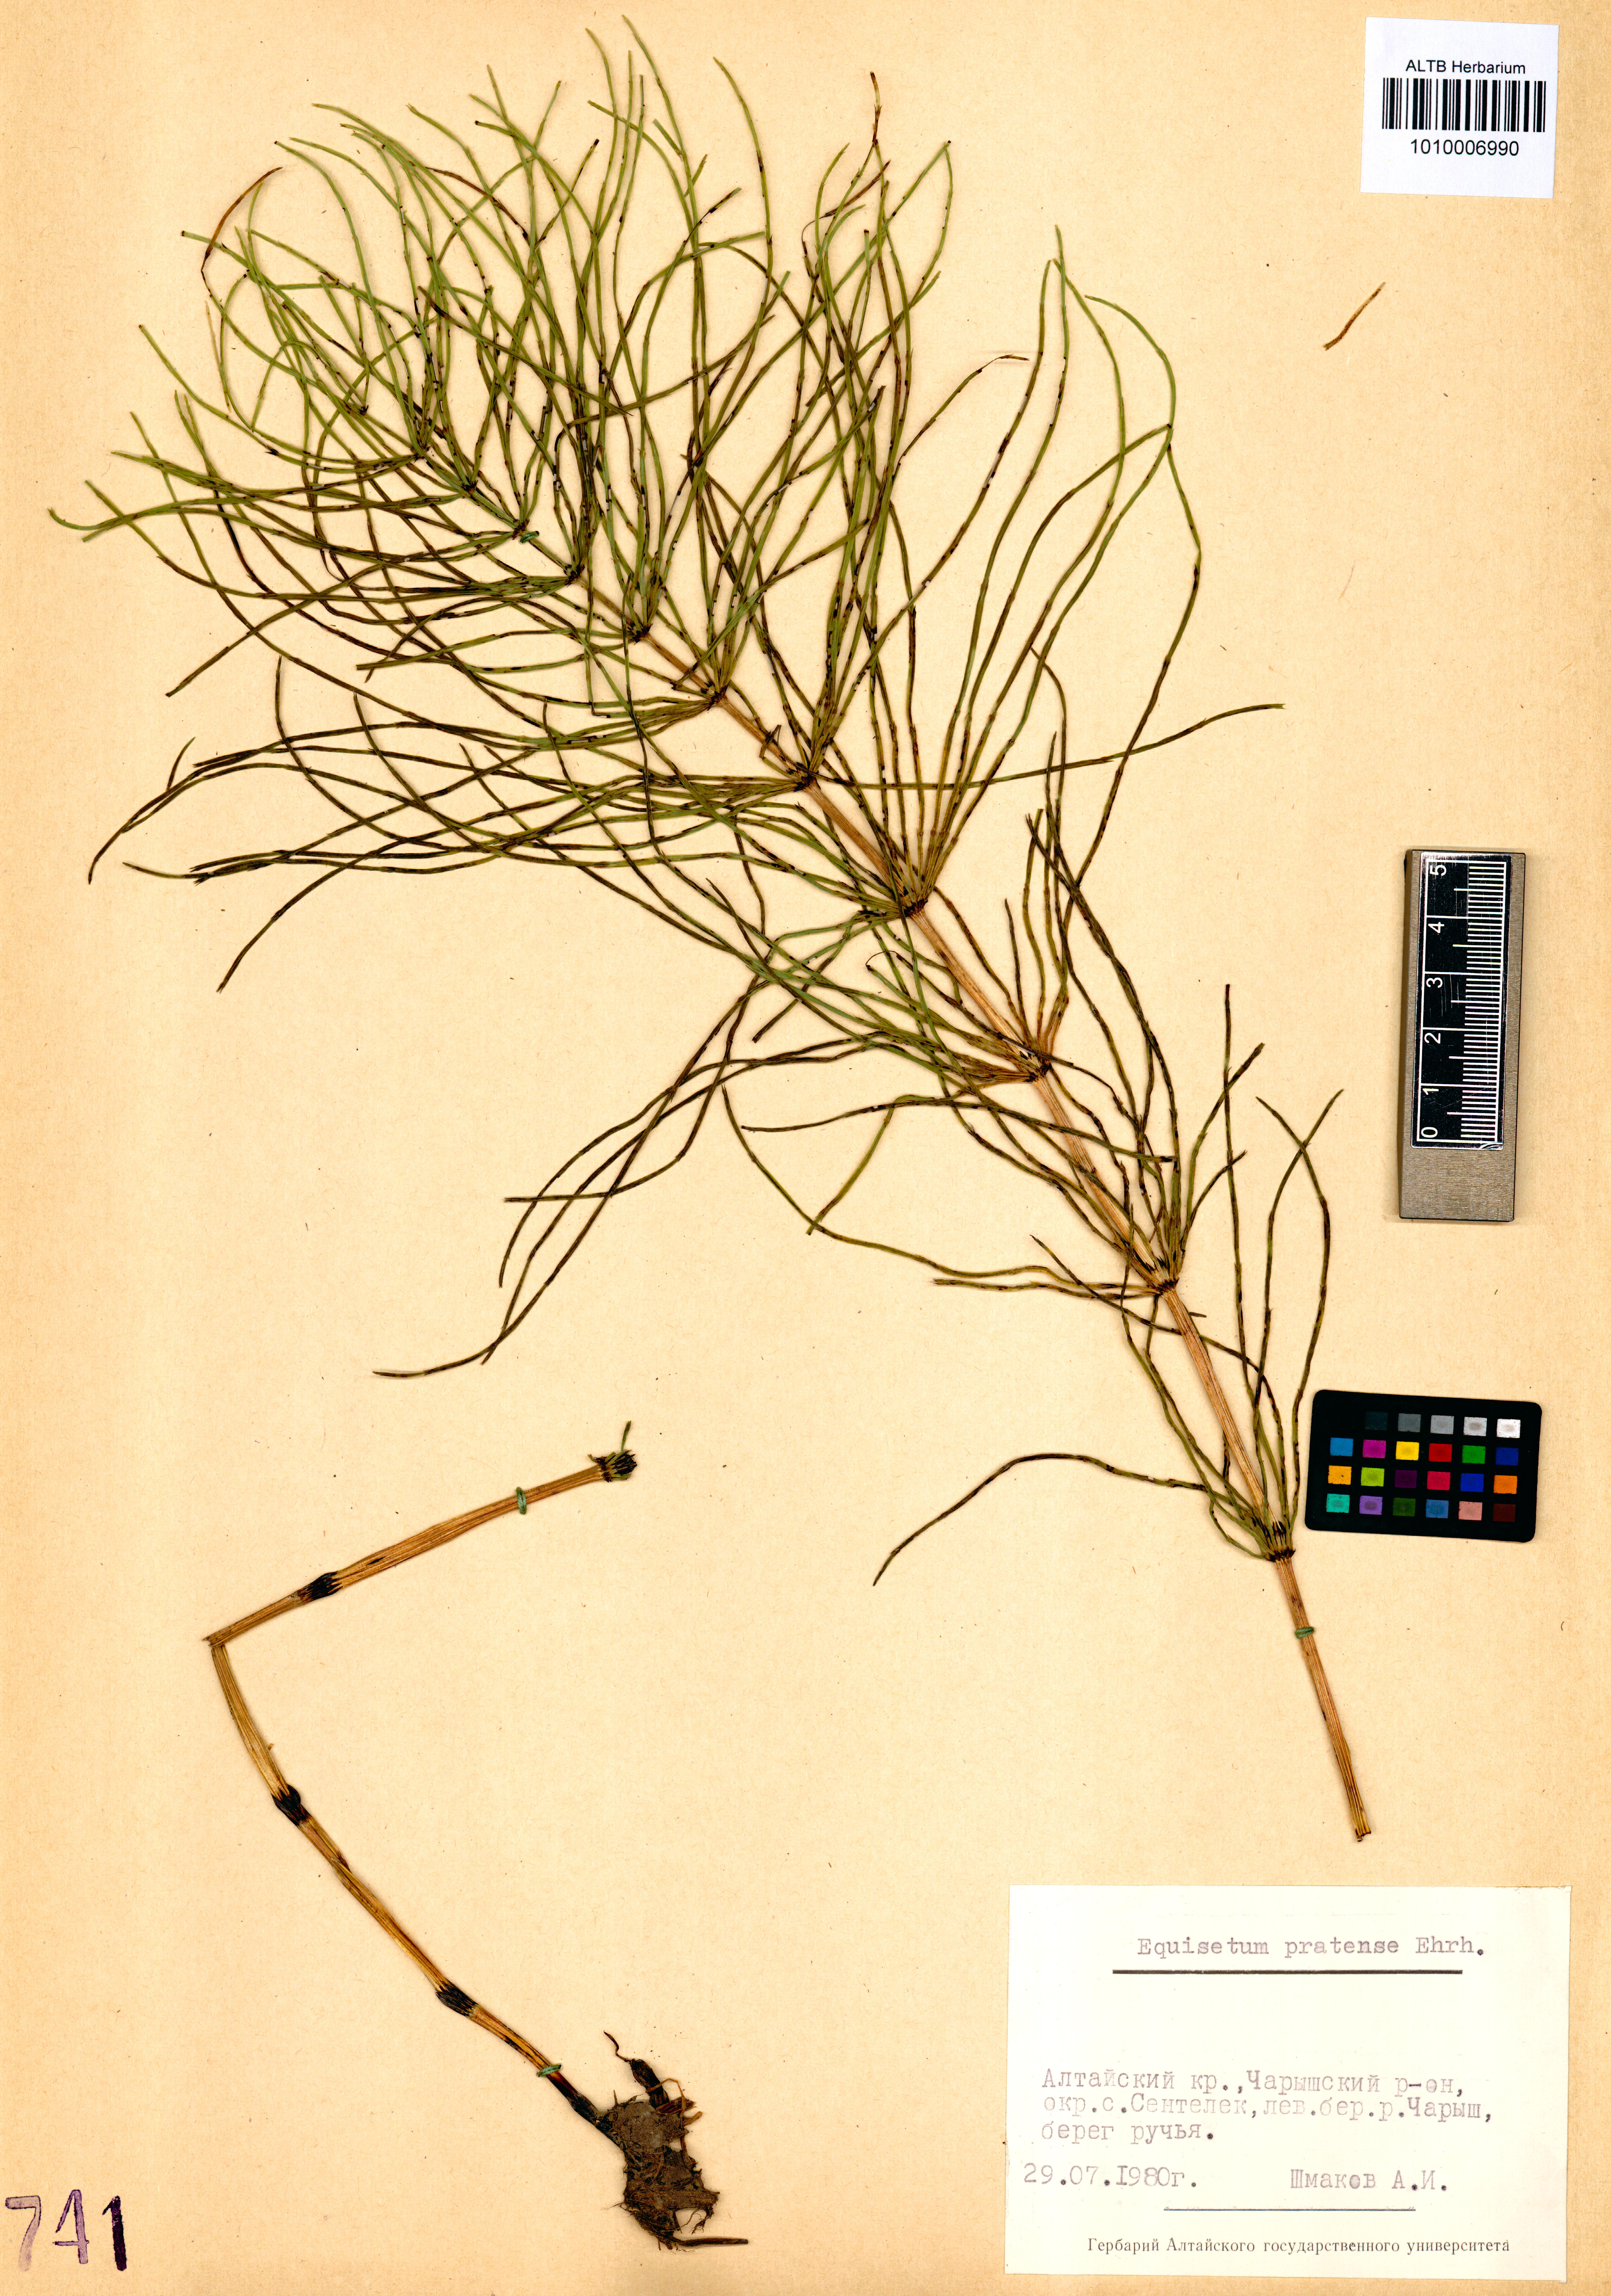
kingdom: Plantae
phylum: Tracheophyta
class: Polypodiopsida
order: Equisetales
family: Equisetaceae
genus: Equisetum
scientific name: Equisetum pratense
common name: Meadow horsetail
